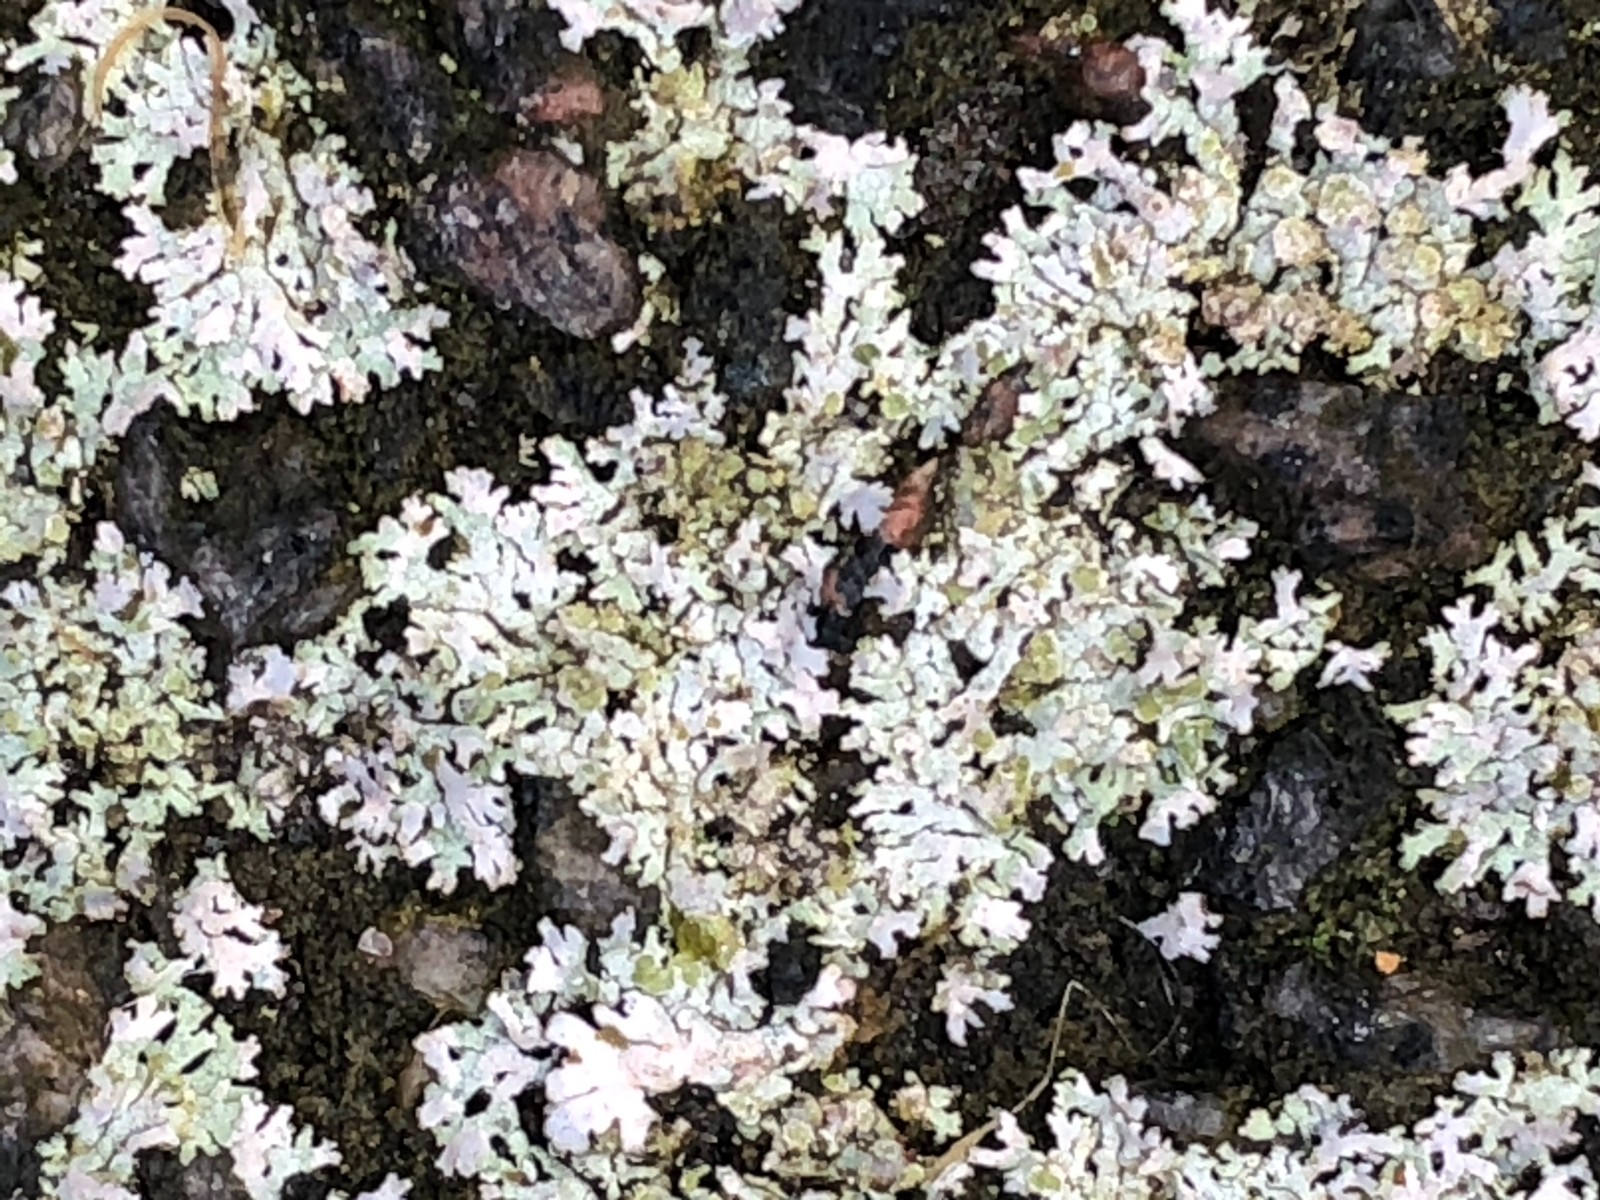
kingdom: Fungi
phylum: Ascomycota
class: Lecanoromycetes
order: Caliciales
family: Physciaceae
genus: Physcia
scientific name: Physcia
